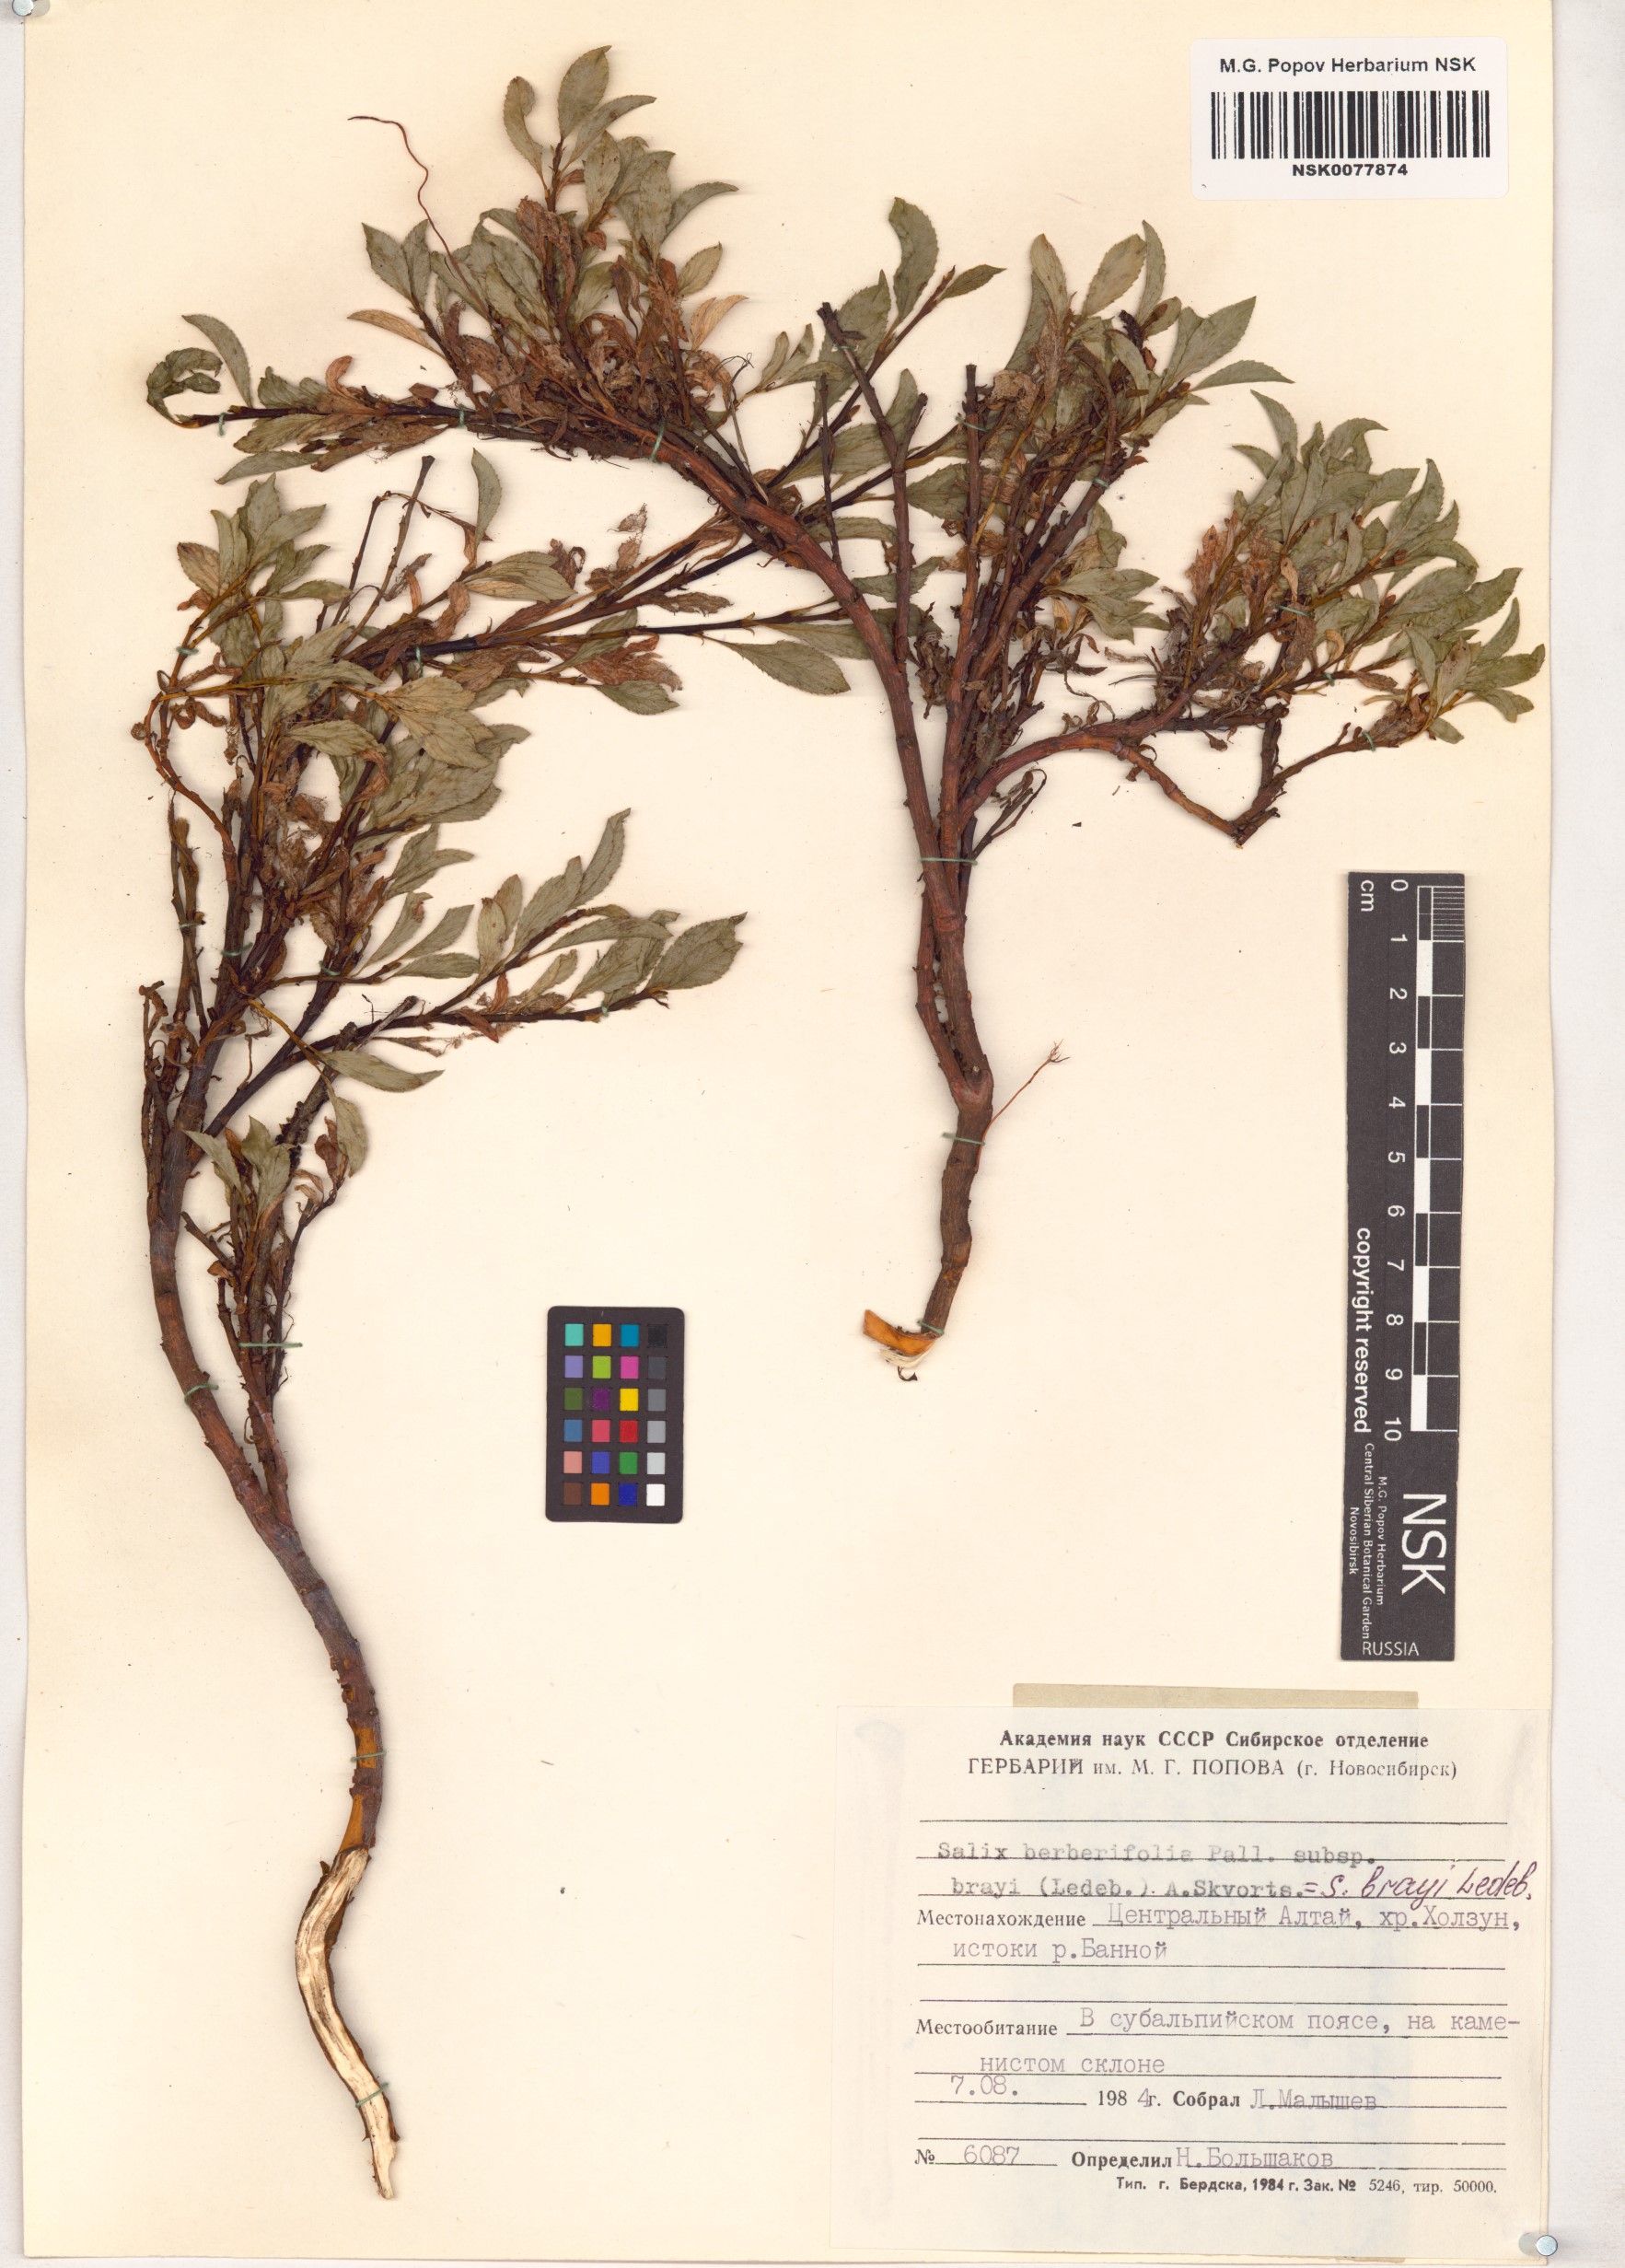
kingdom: Plantae
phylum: Tracheophyta
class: Magnoliopsida
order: Malpighiales
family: Salicaceae
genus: Salix
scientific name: Salix berberifolia
